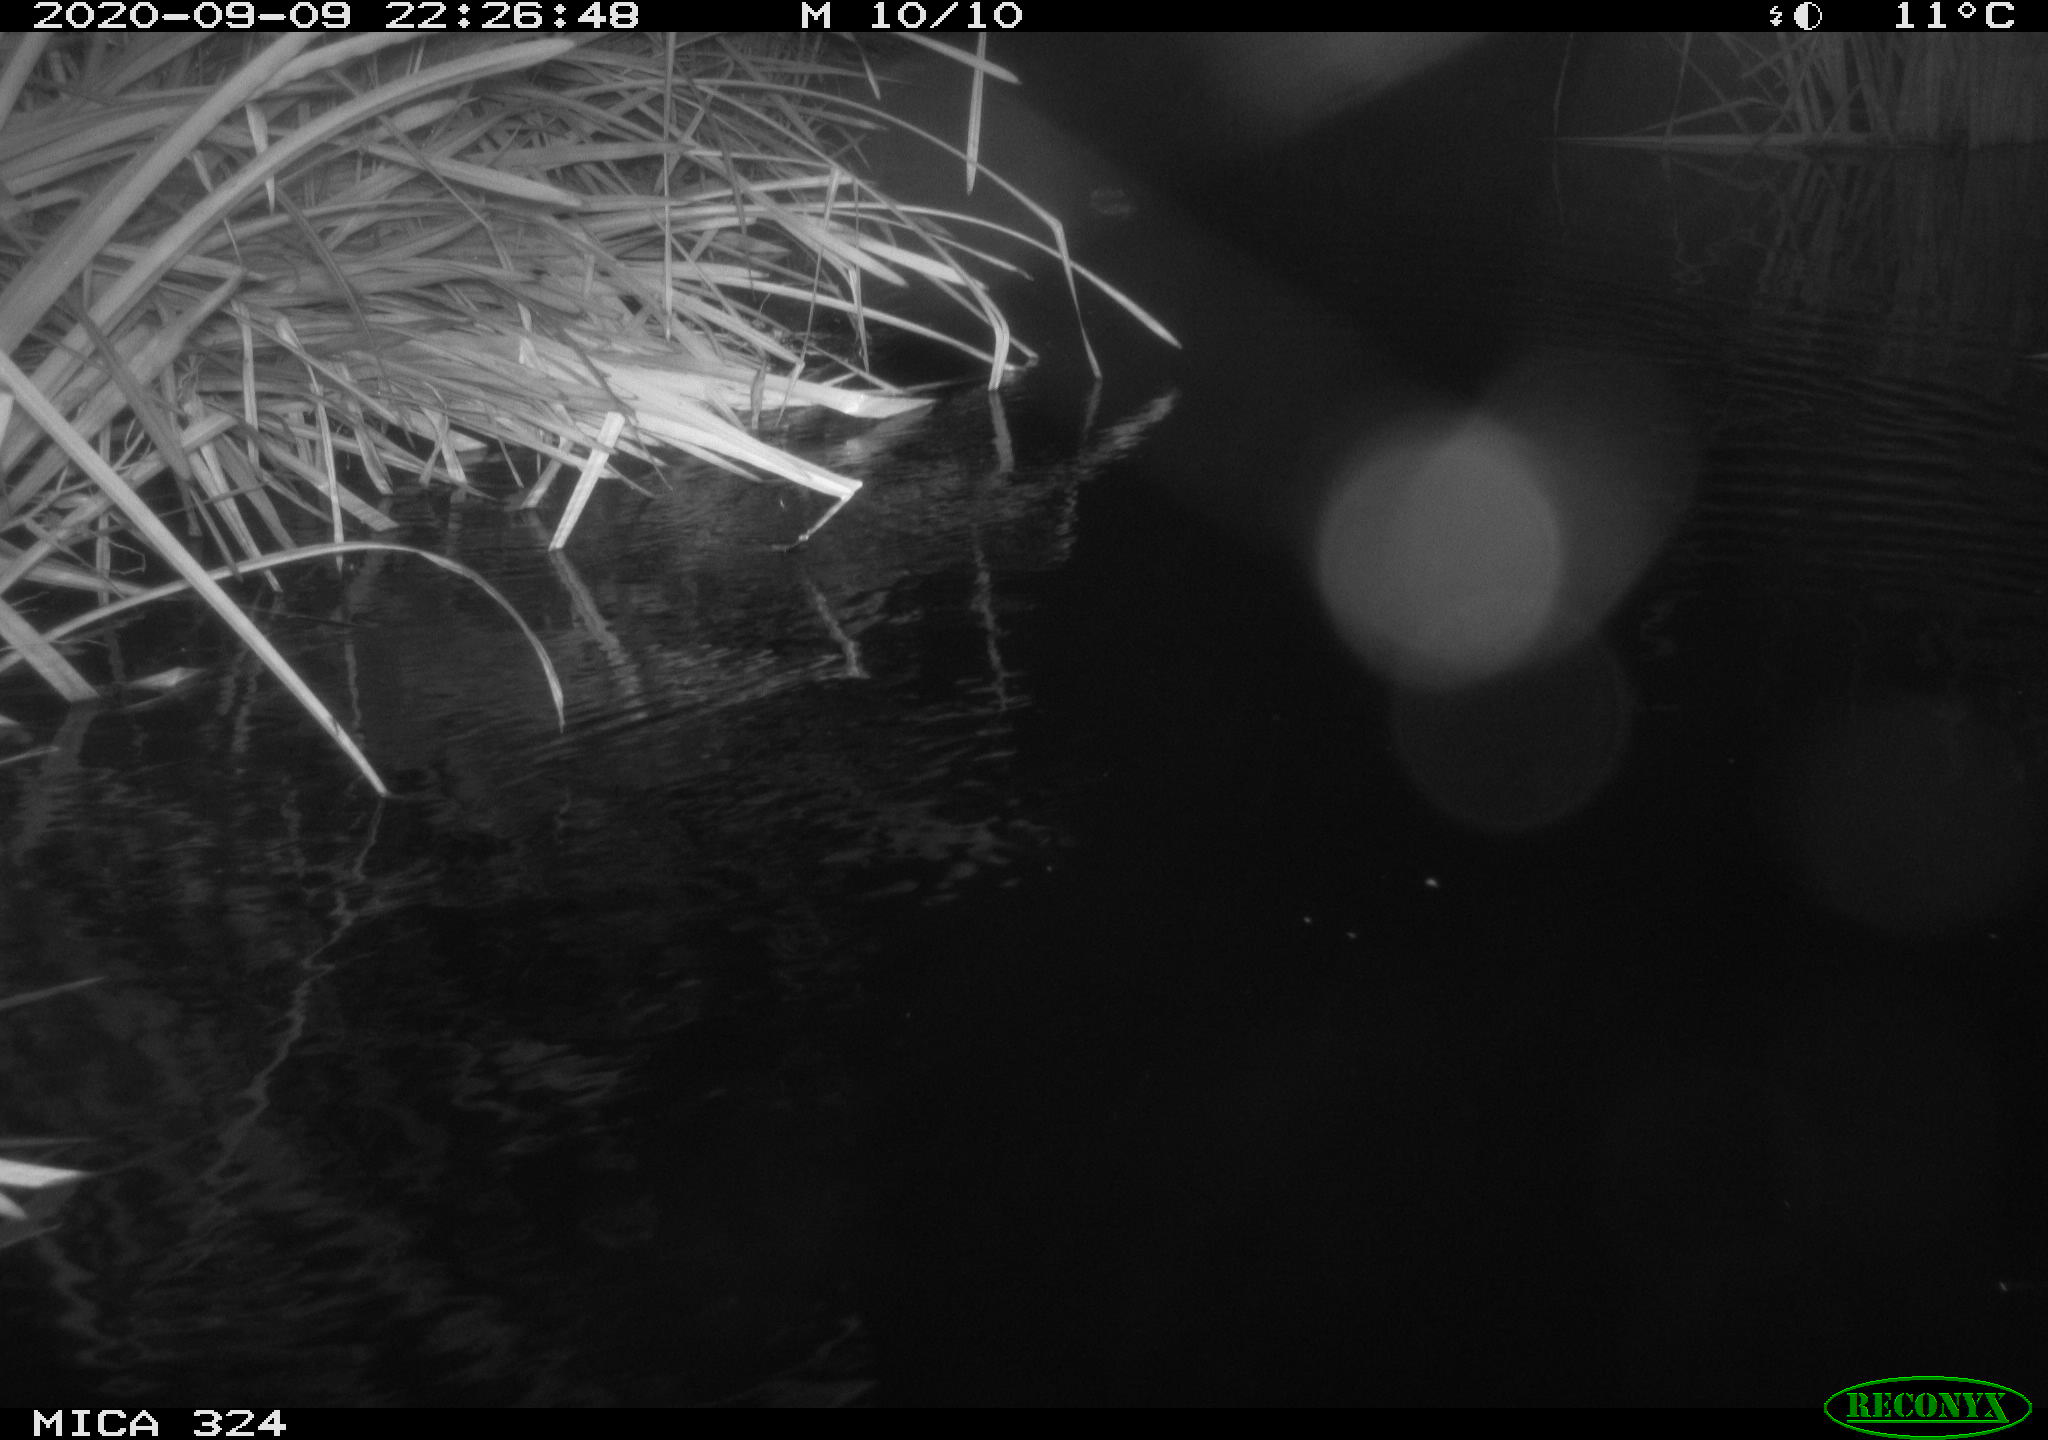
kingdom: Animalia
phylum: Chordata
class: Mammalia
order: Rodentia
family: Cricetidae
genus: Ondatra
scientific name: Ondatra zibethicus
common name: Muskrat
